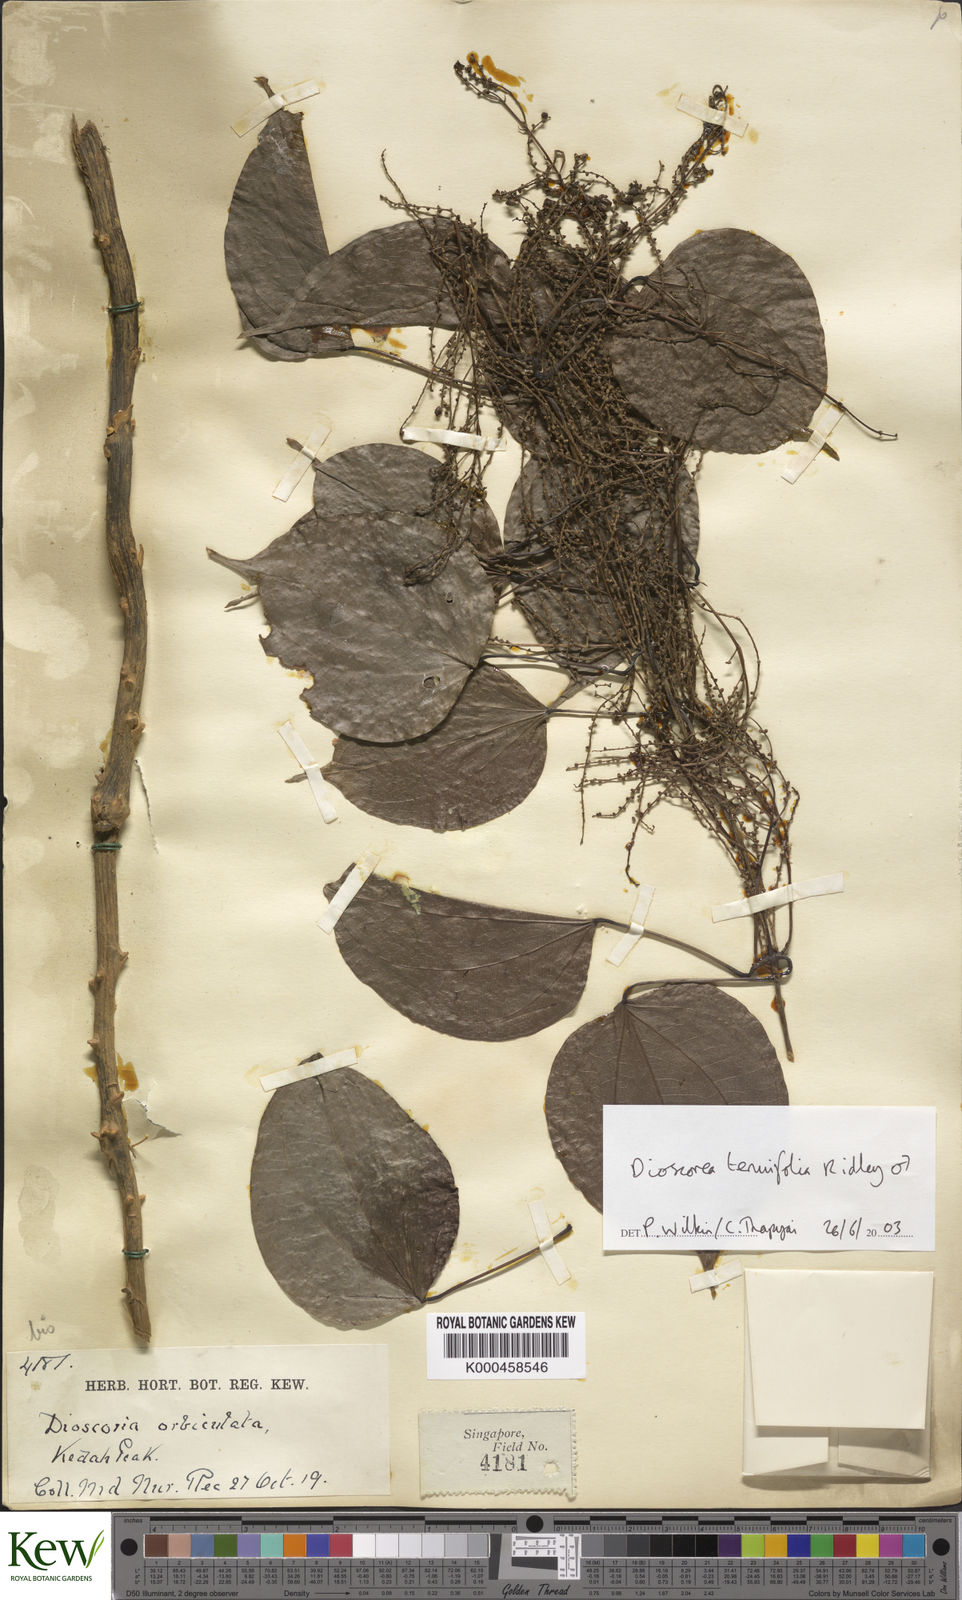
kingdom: Plantae
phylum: Tracheophyta
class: Liliopsida
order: Dioscoreales
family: Dioscoreaceae
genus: Dioscorea
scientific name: Dioscorea tenuifolia
